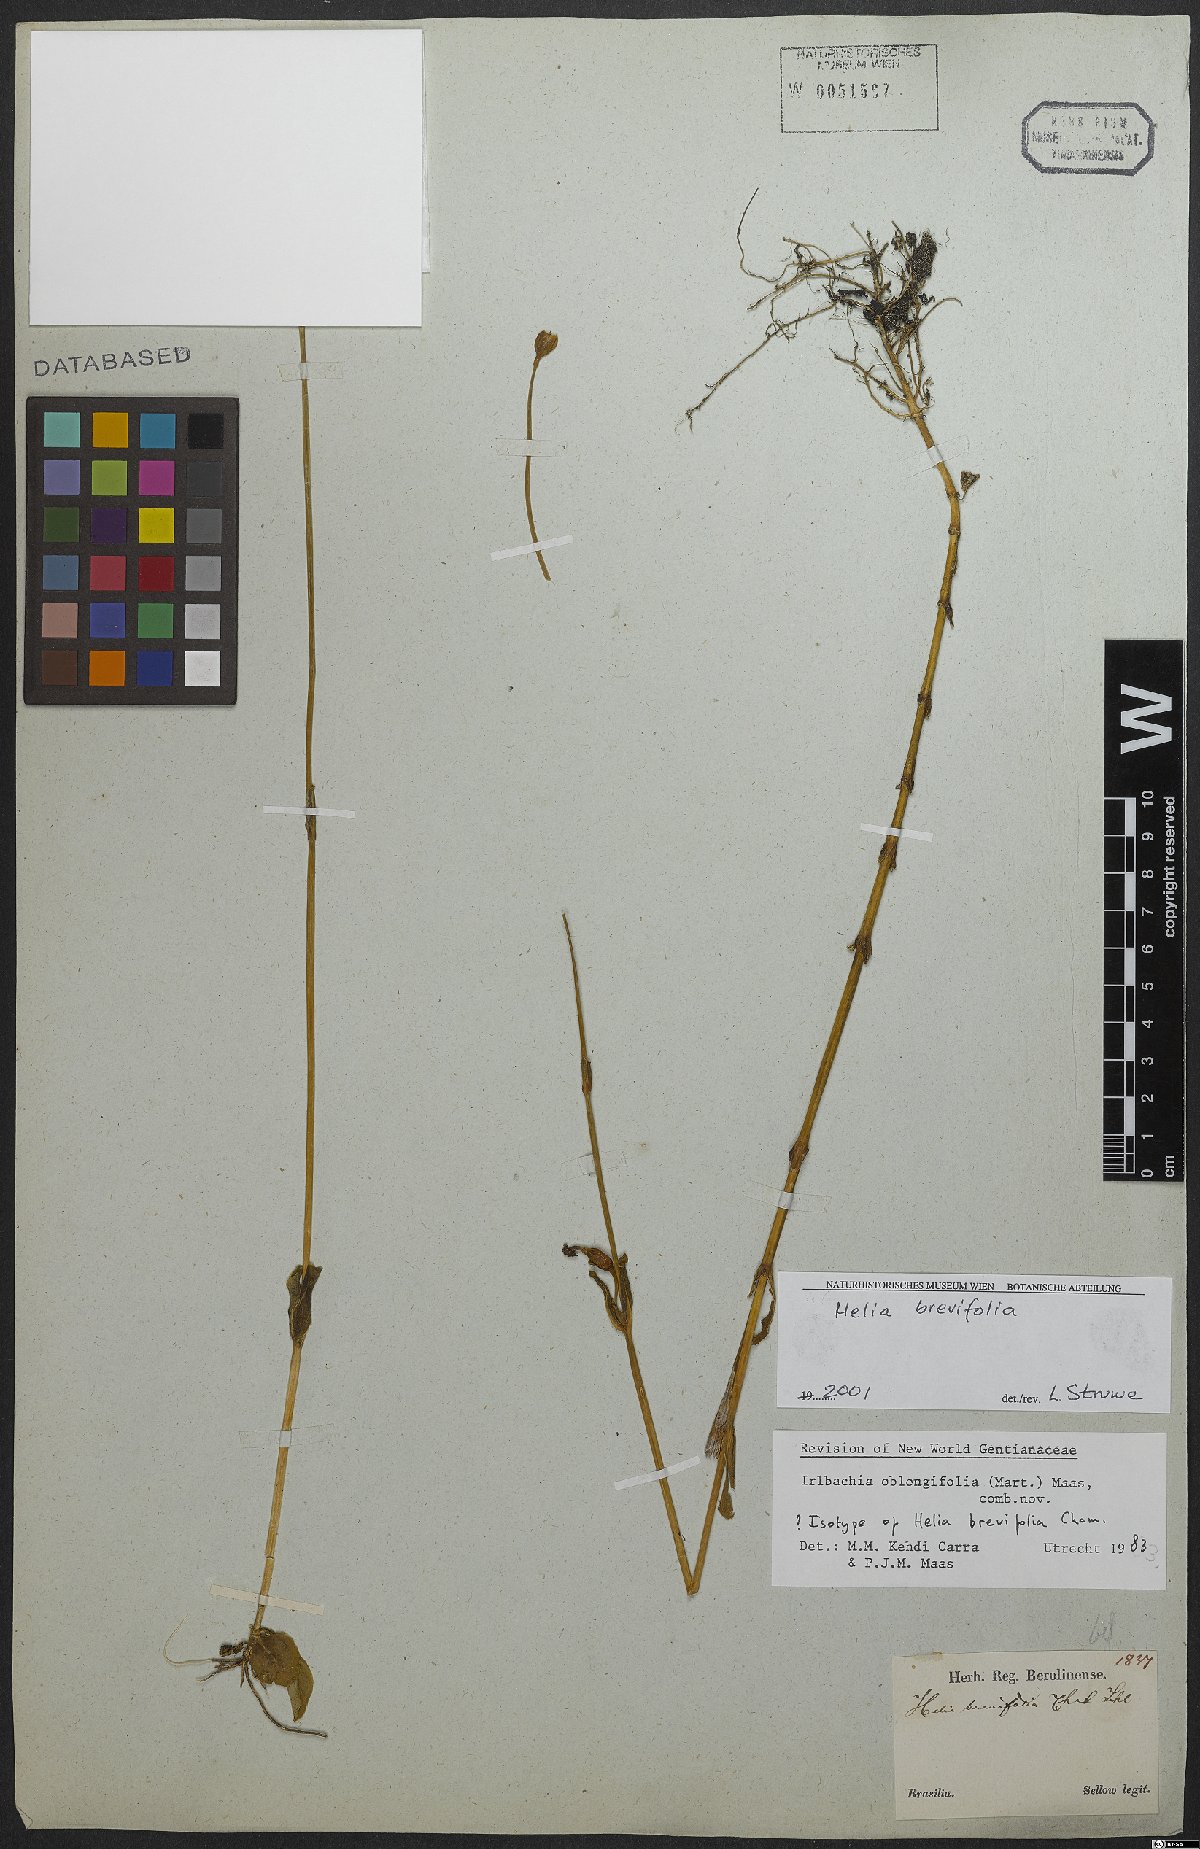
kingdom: Plantae
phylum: Tracheophyta
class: Magnoliopsida
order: Gentianales
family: Gentianaceae
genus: Irlbachia
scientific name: Irlbachia oblongifolia
